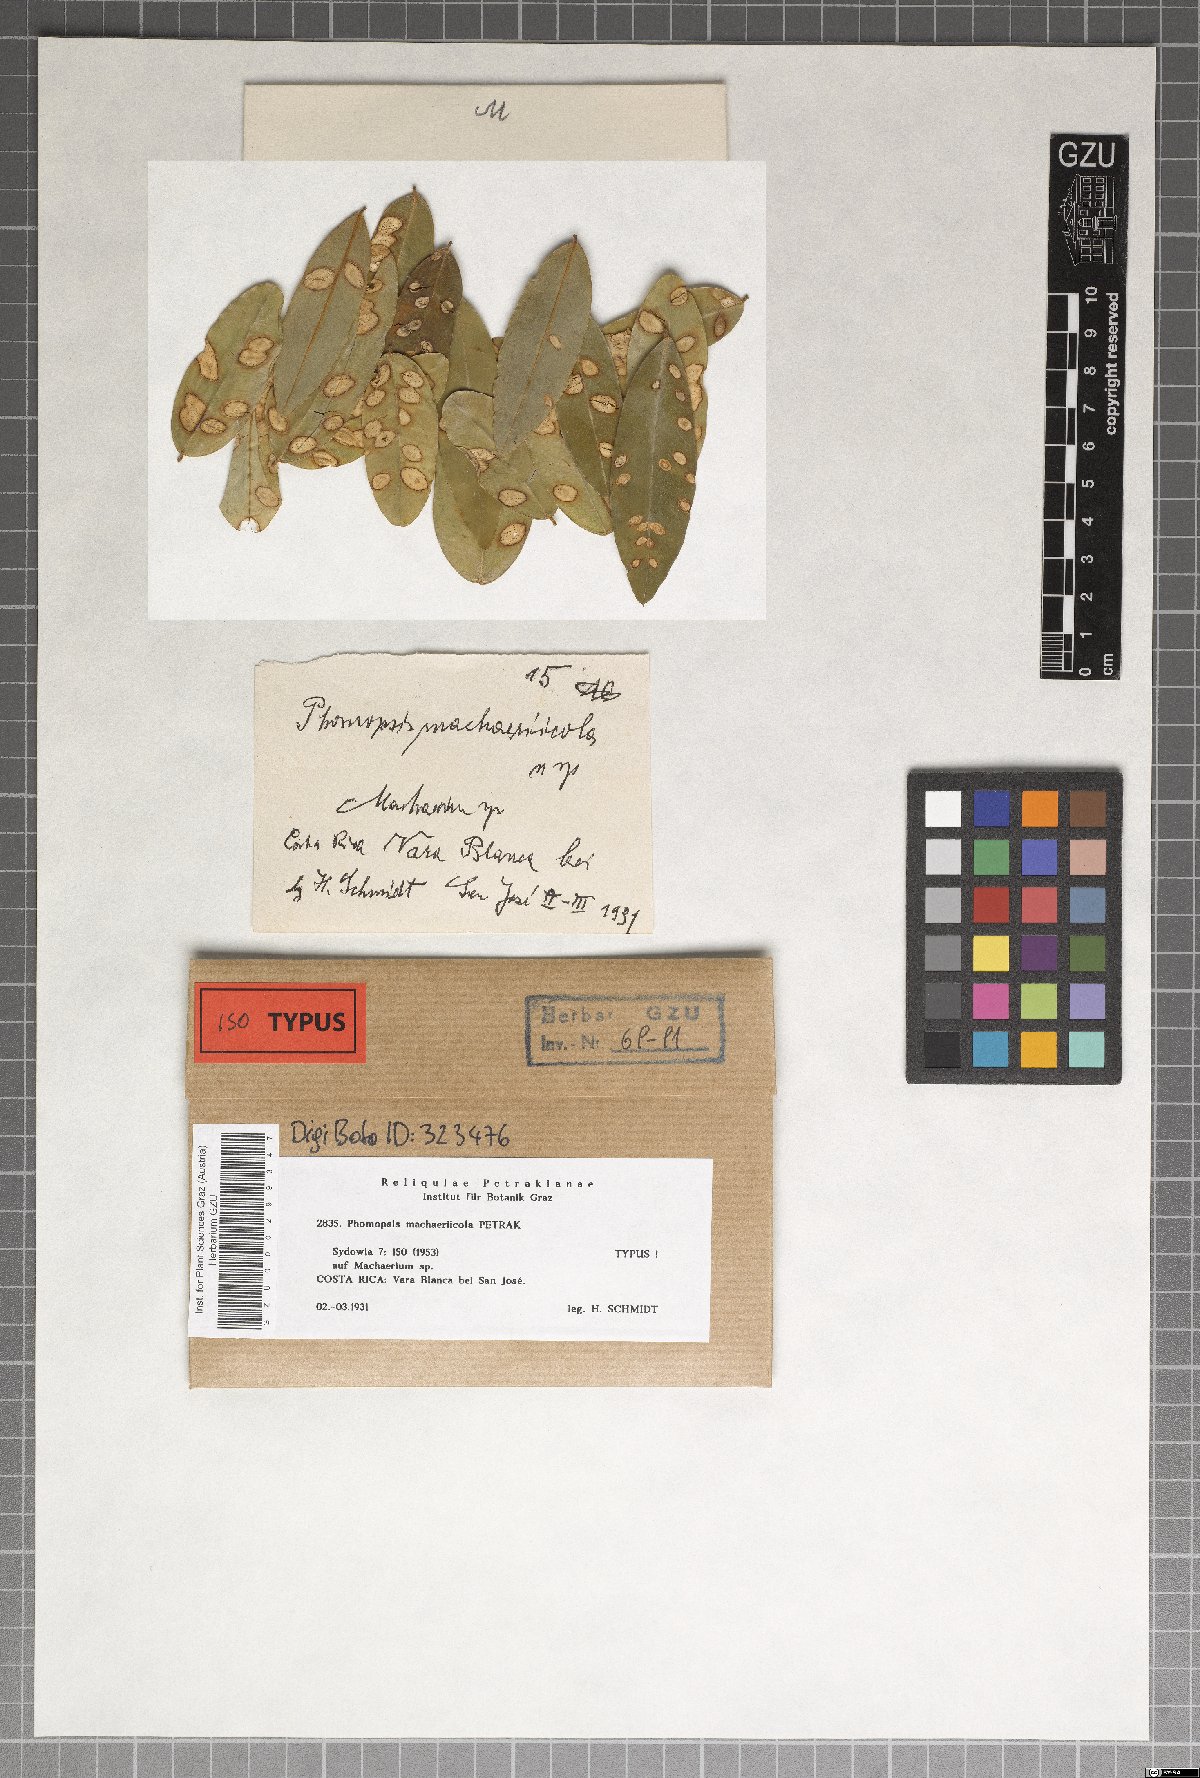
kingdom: Fungi
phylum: Ascomycota
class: Sordariomycetes
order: Diaporthales
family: Diaporthaceae
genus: Phomopsis
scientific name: Phomopsis machaeriicola
